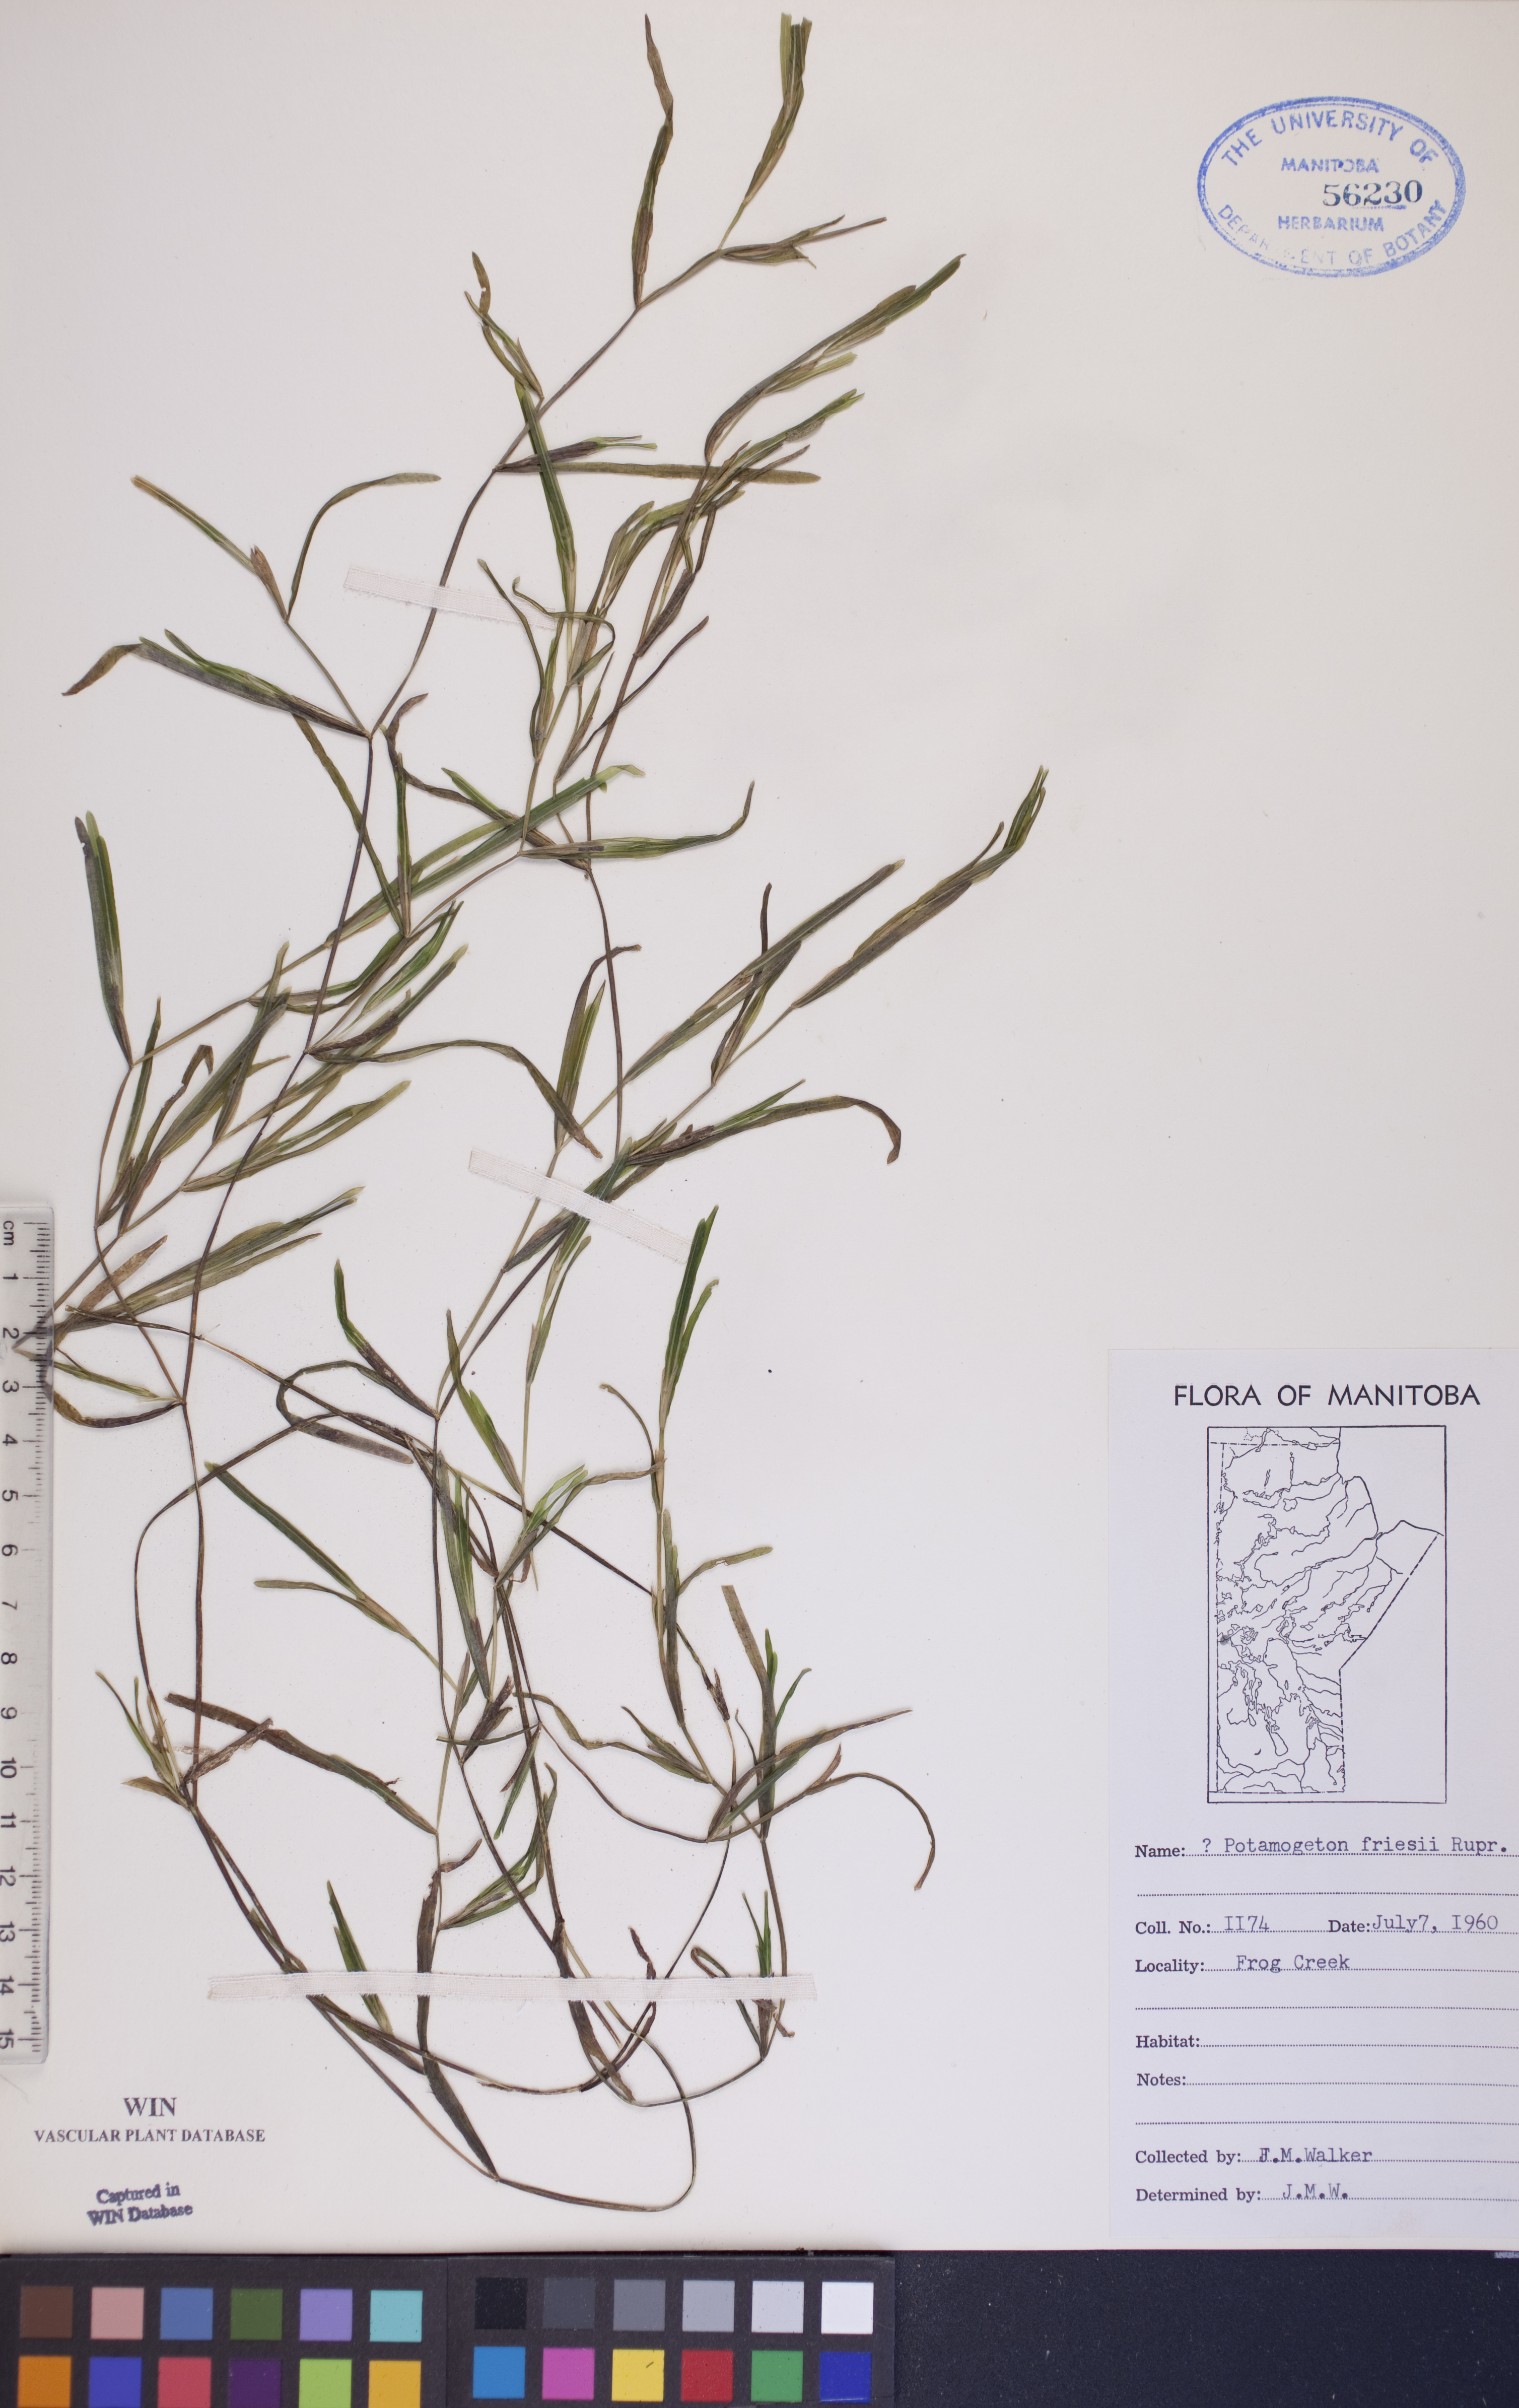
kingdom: Plantae
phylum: Tracheophyta
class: Liliopsida
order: Alismatales
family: Potamogetonaceae
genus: Potamogeton
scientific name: Potamogeton friesii
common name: Flat-stalked pondweed
